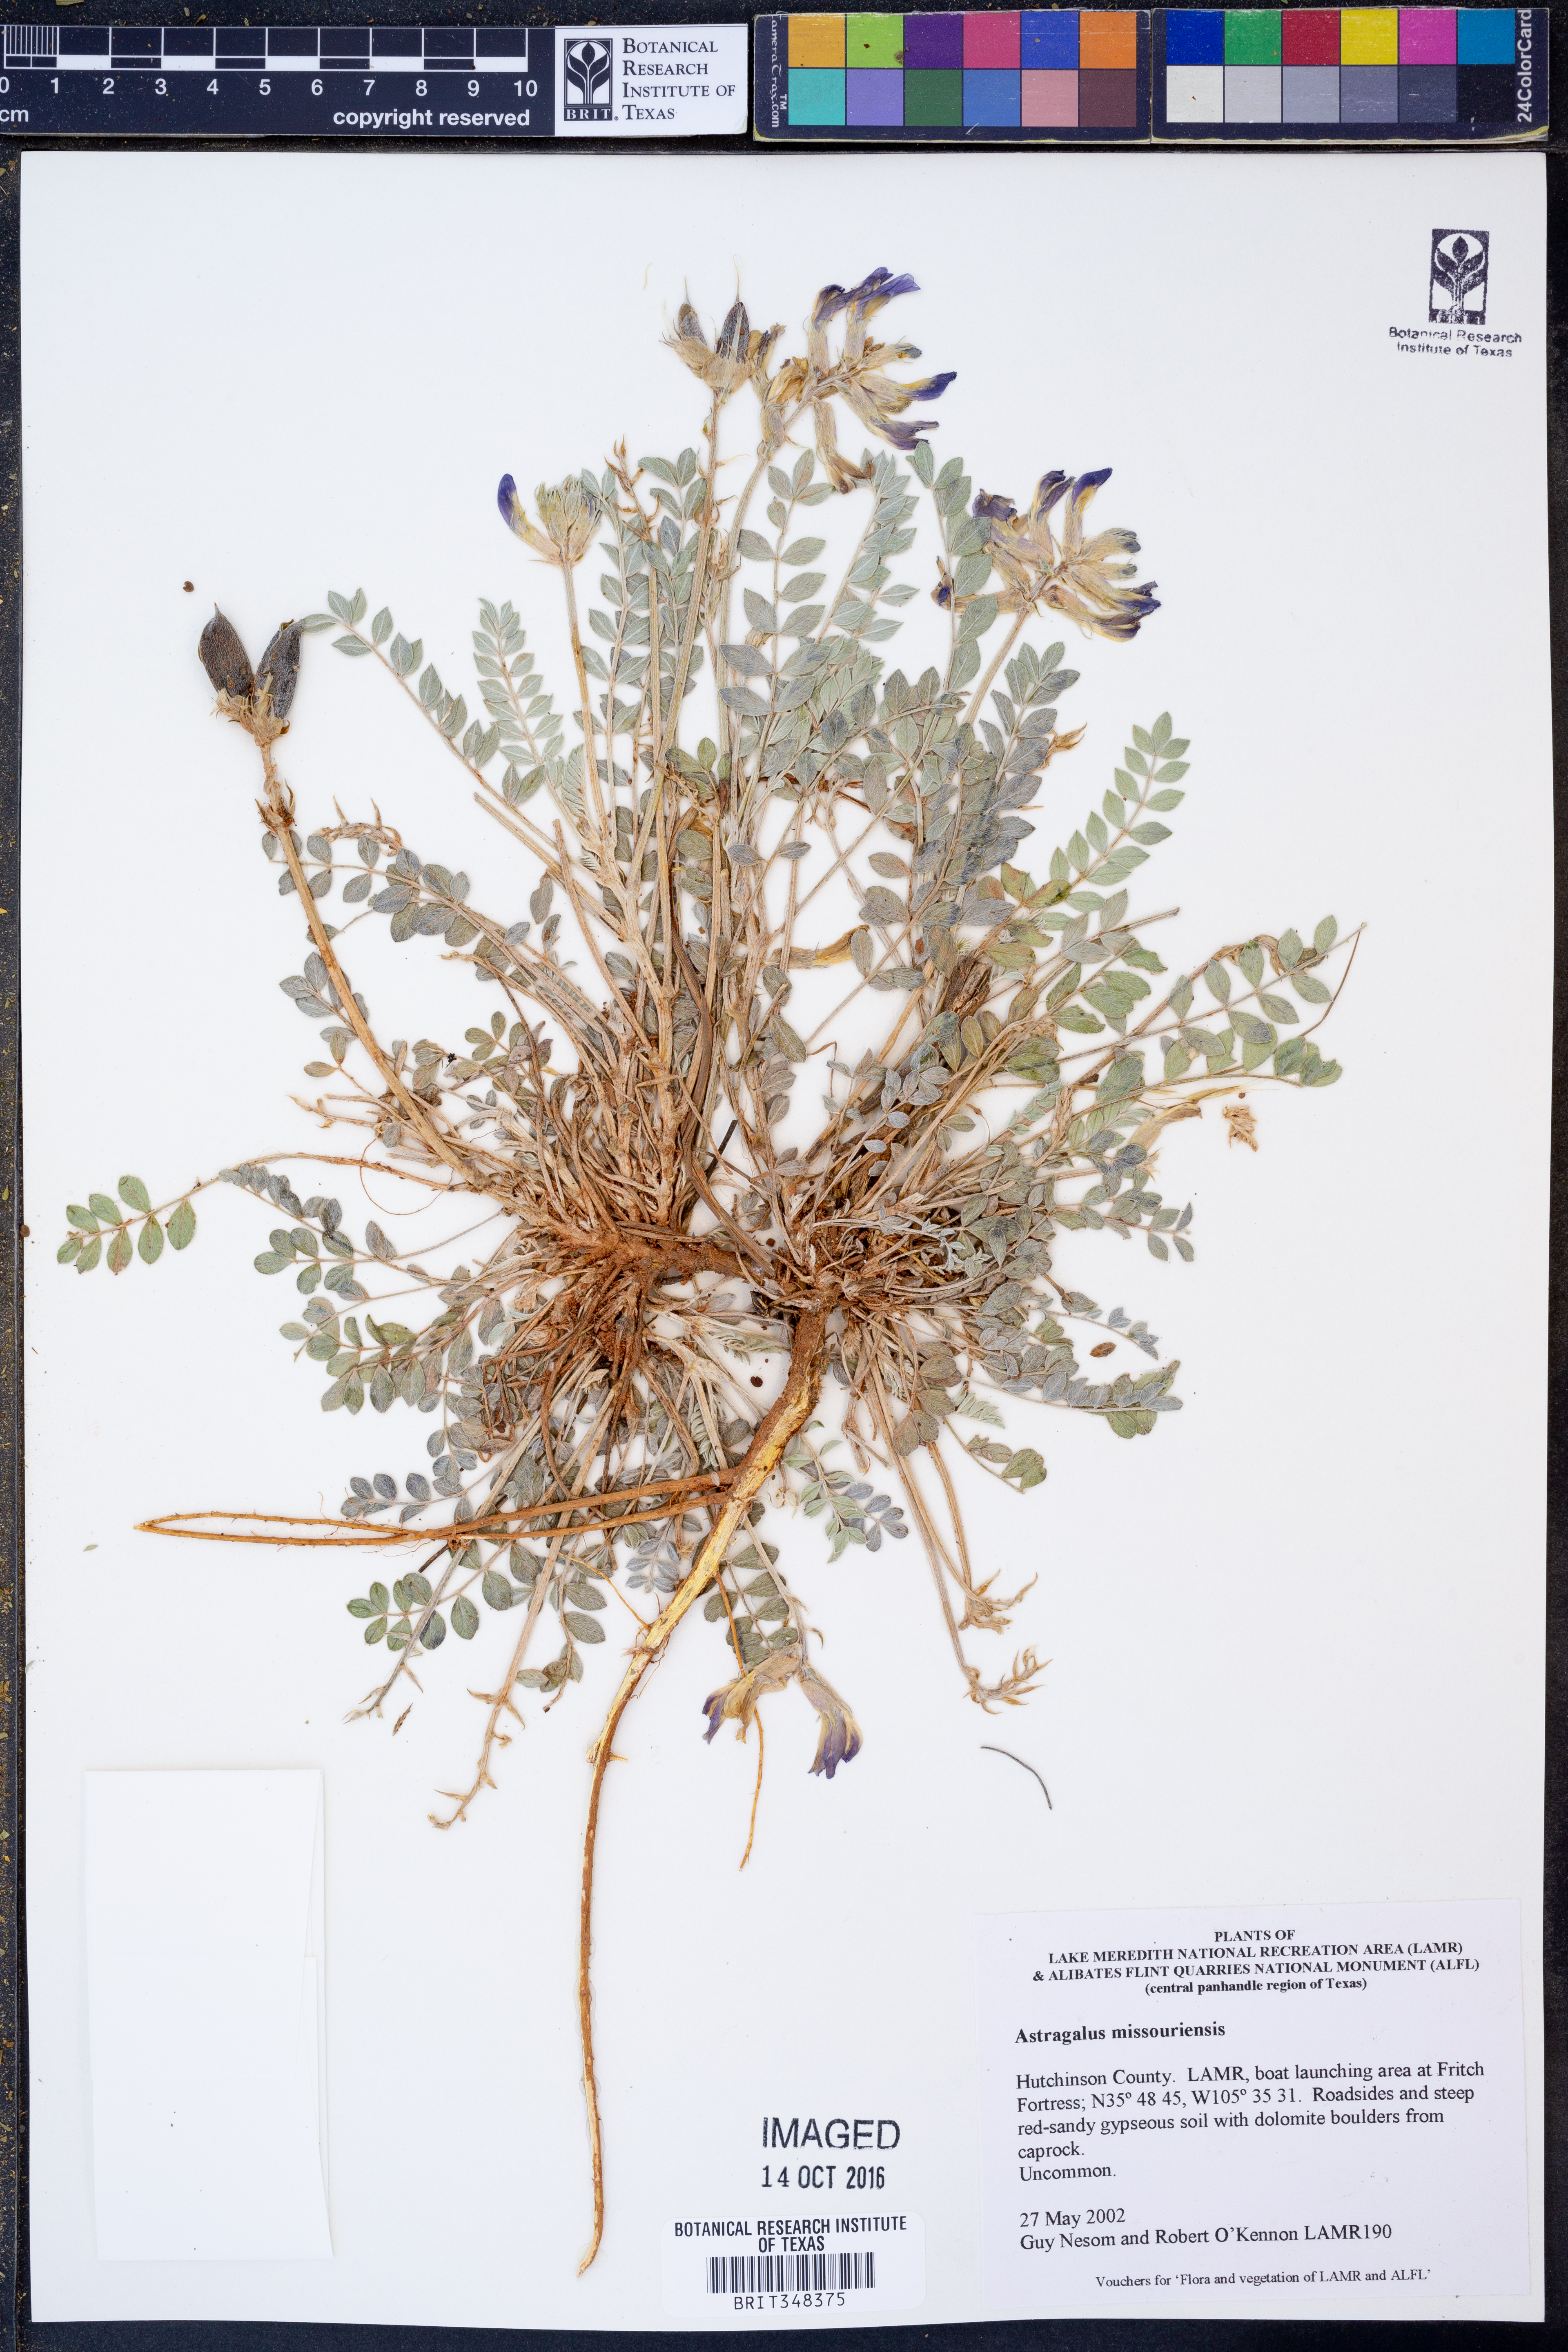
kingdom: Plantae
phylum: Tracheophyta
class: Magnoliopsida
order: Fabales
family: Fabaceae
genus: Astragalus
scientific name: Astragalus missouriensis
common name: Missouri milk-vetch
